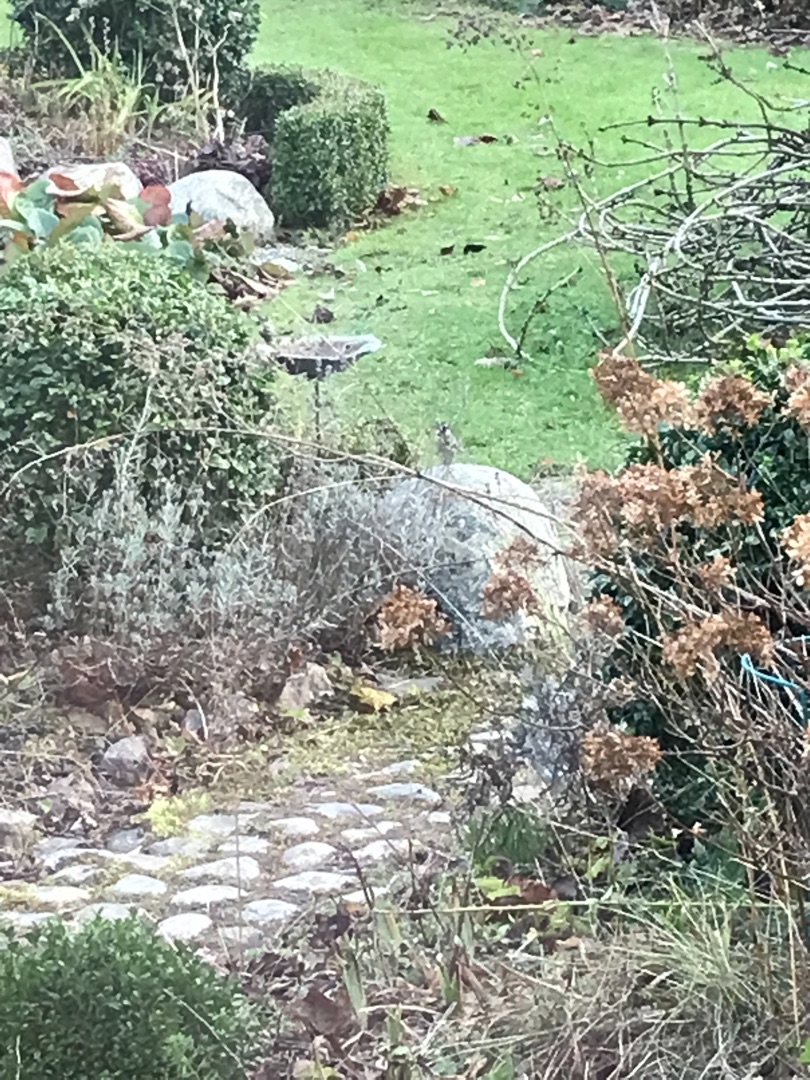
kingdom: Animalia
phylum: Chordata
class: Aves
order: Passeriformes
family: Paridae
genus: Parus
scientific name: Parus major
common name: Musvit
